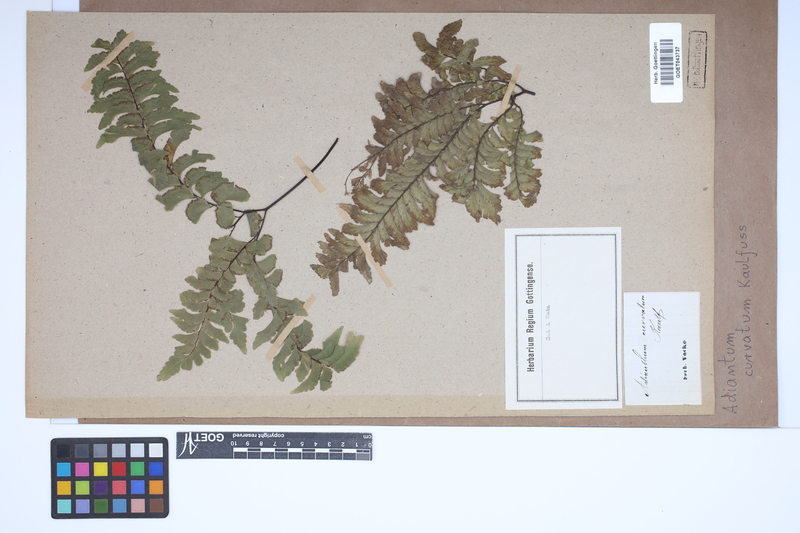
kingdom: Plantae
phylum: Tracheophyta
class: Polypodiopsida
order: Polypodiales
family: Pteridaceae
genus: Adiantum
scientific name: Adiantum curvatum
